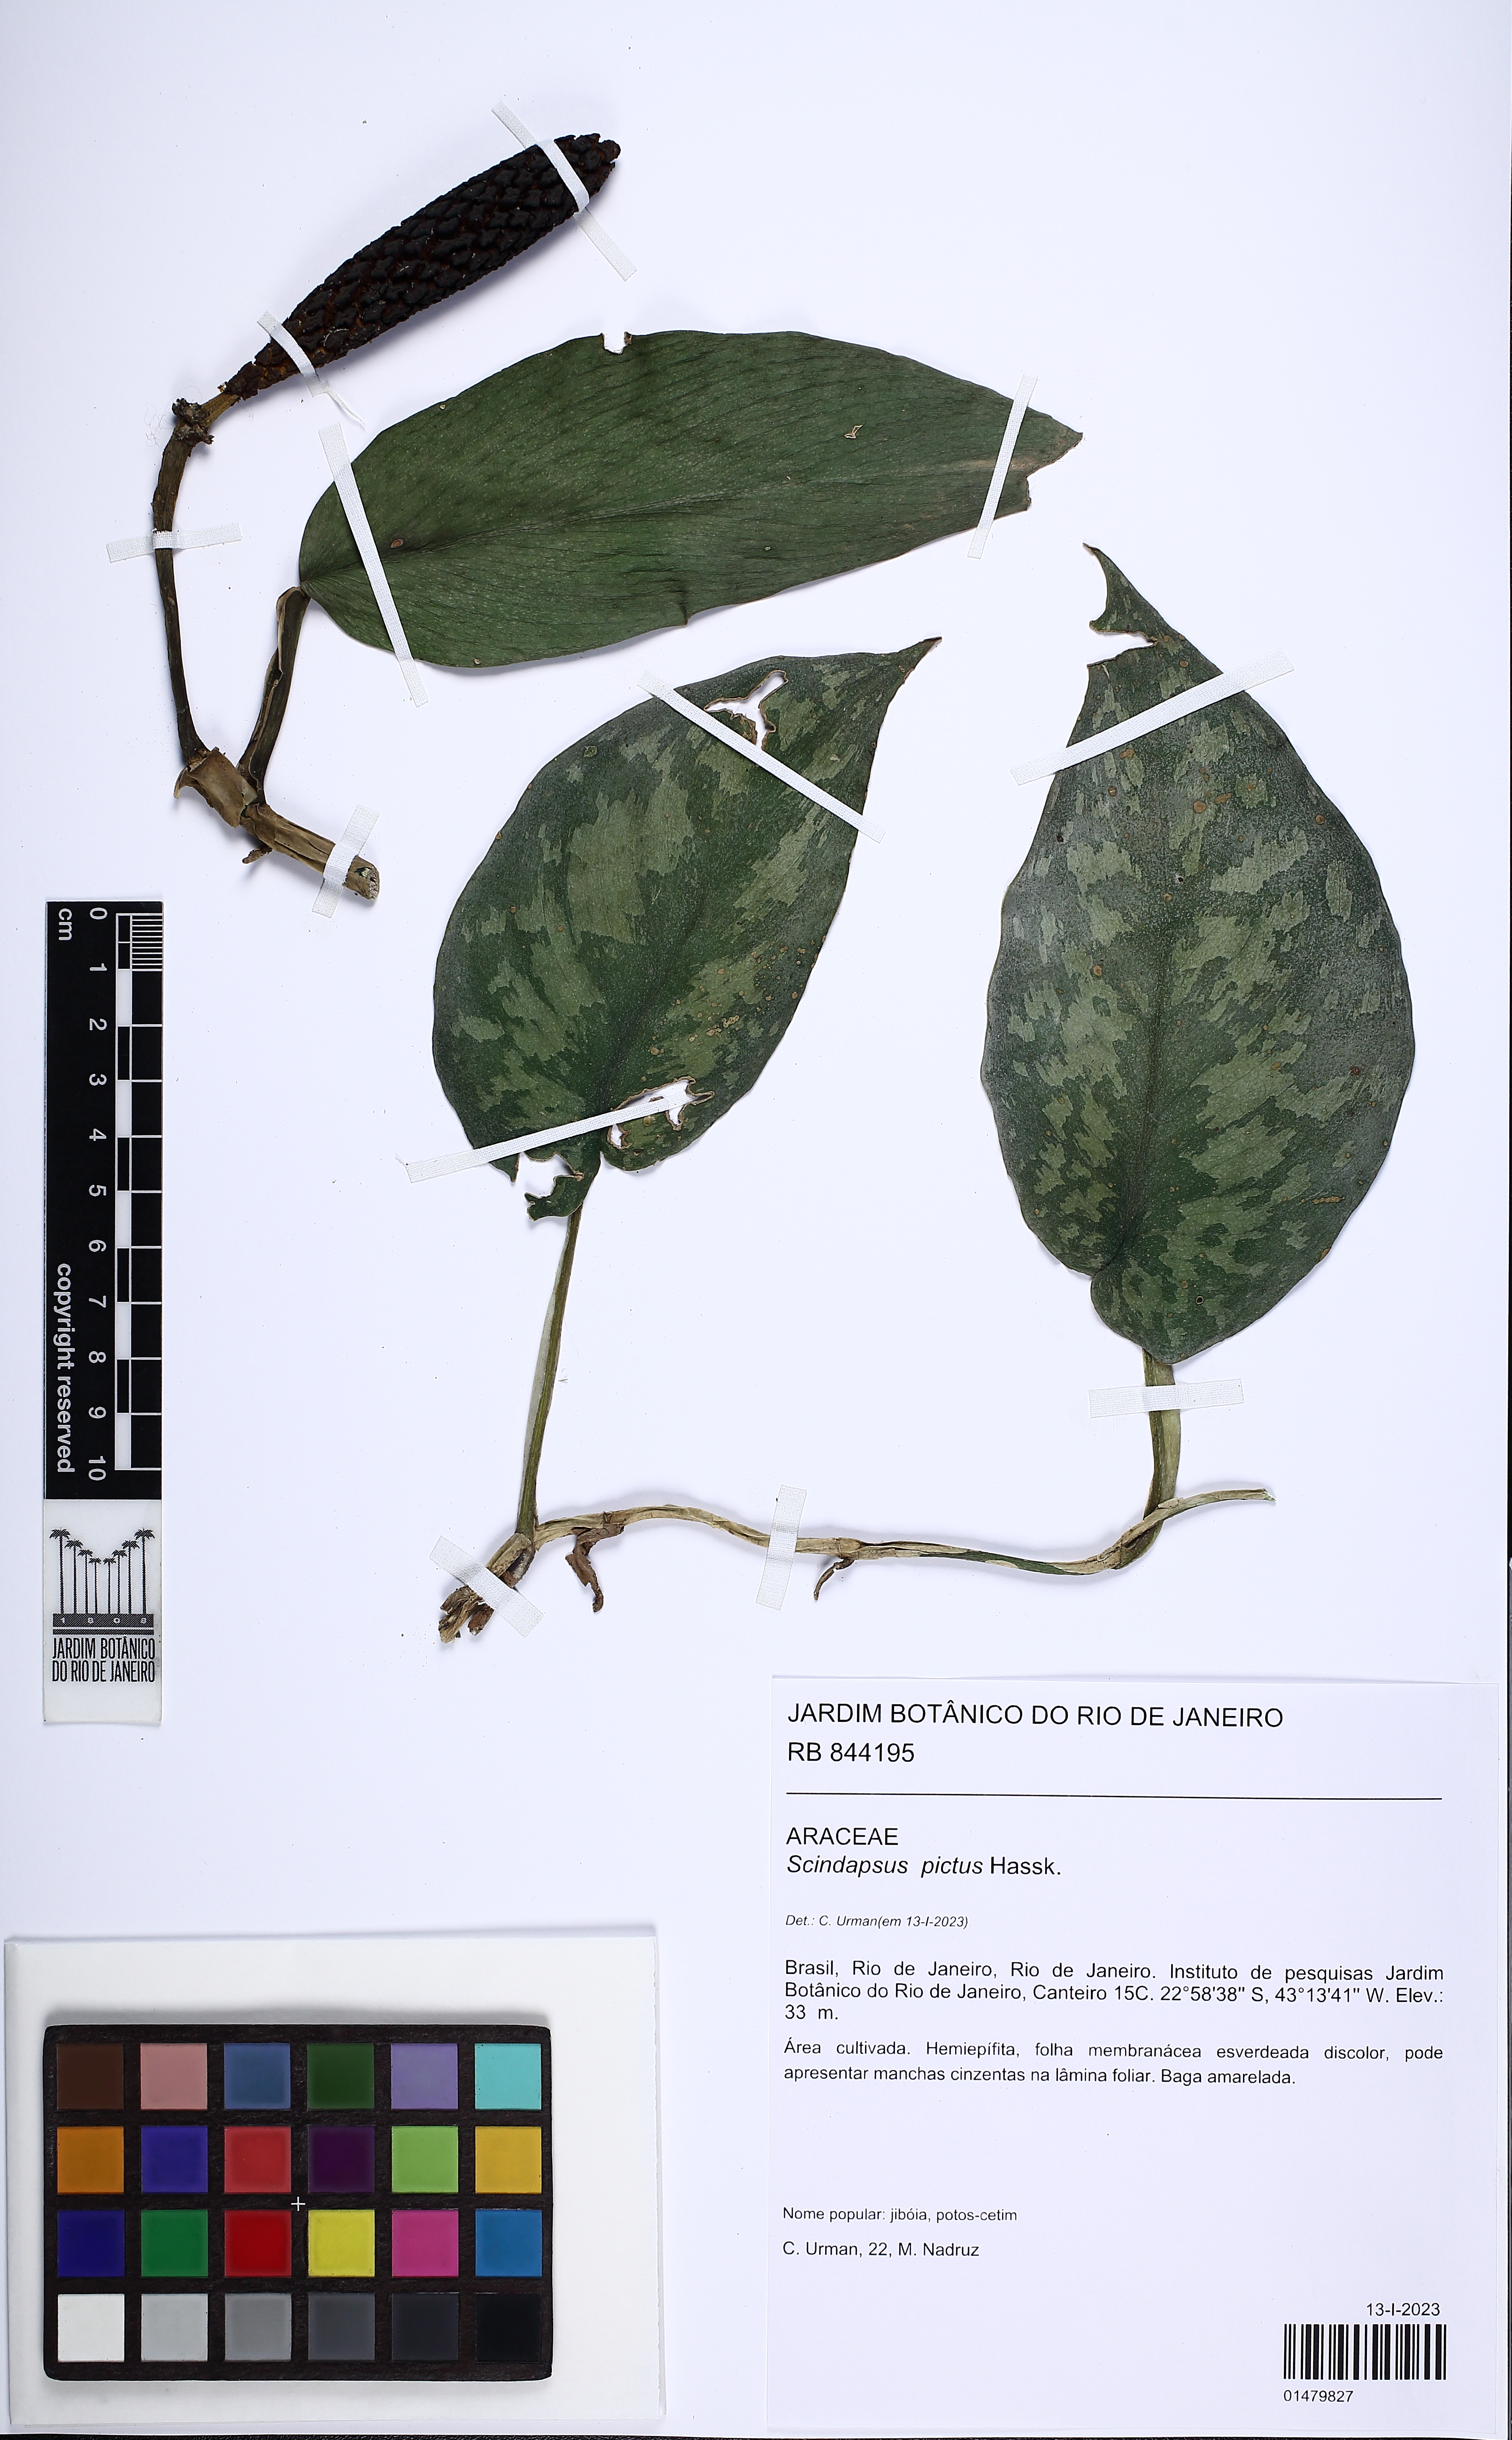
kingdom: Plantae
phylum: Tracheophyta
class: Liliopsida
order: Alismatales
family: Araceae
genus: Scindapsus
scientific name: Scindapsus pictus
